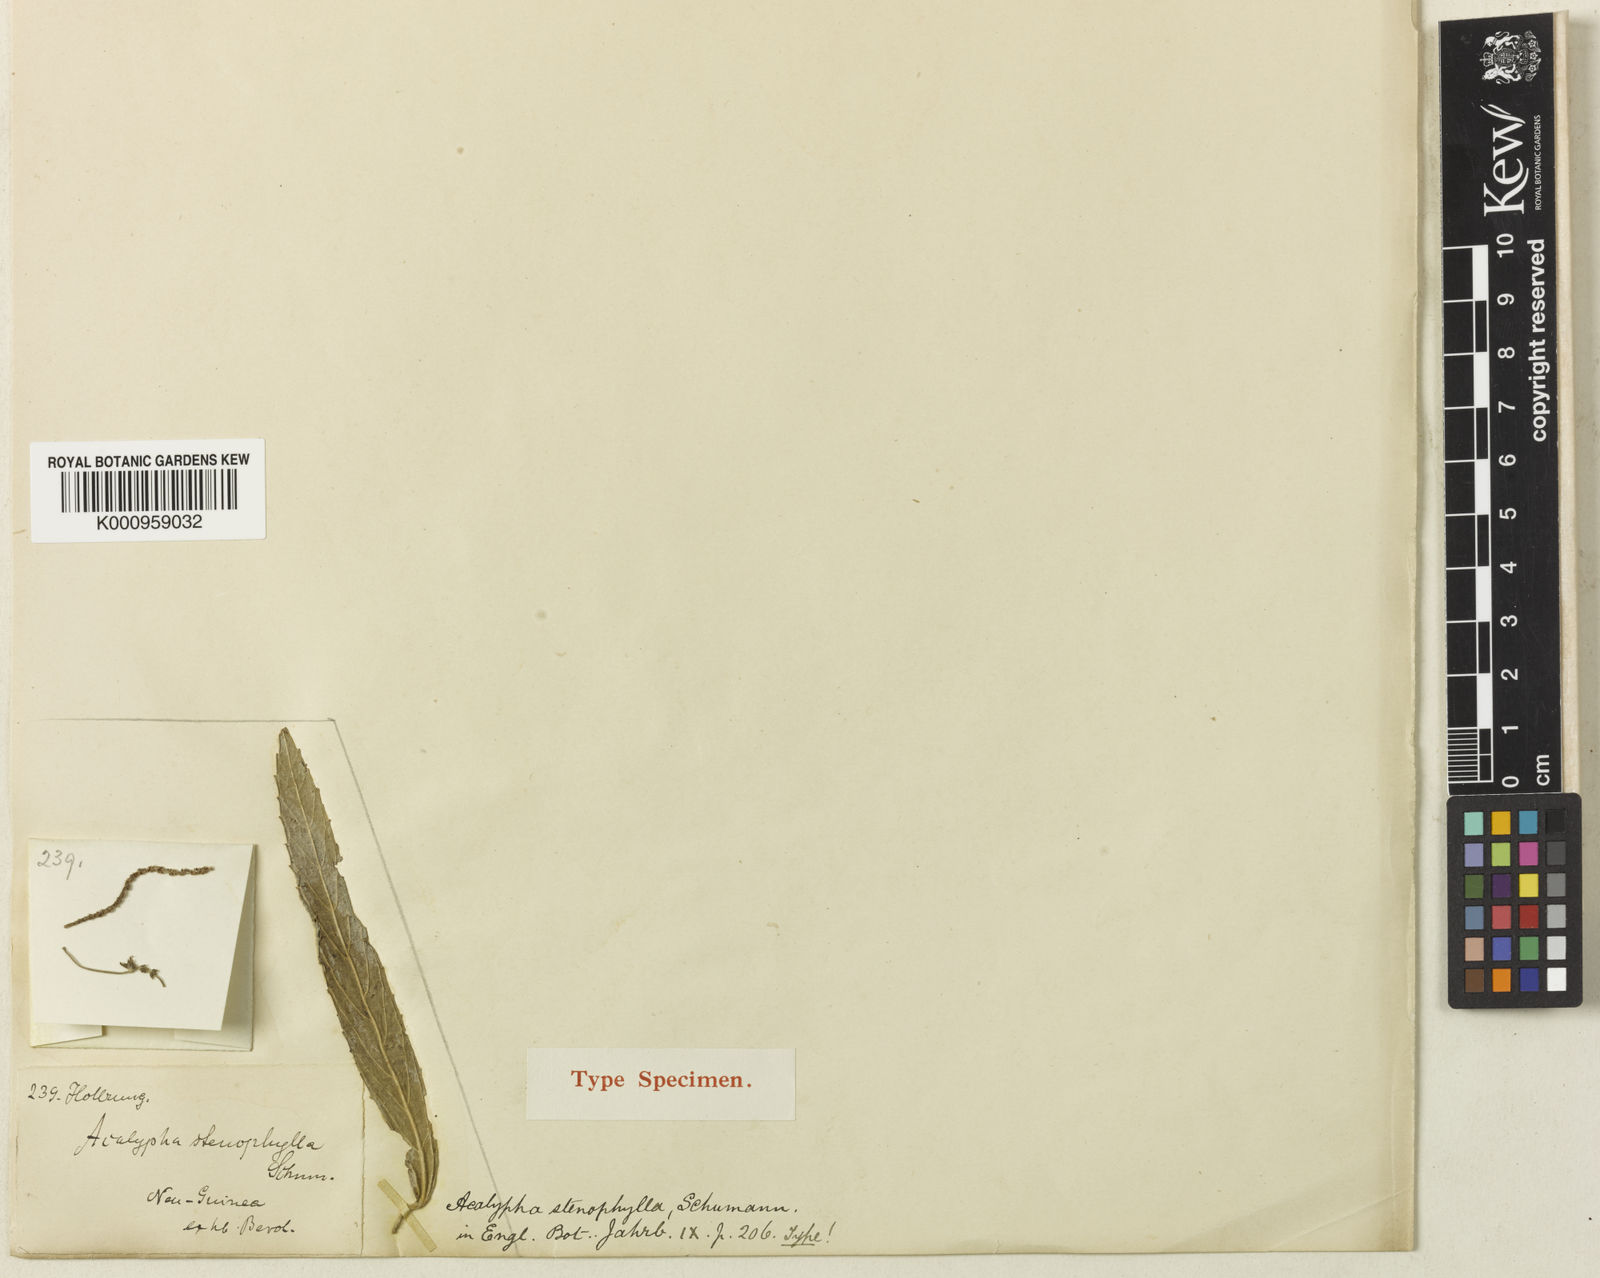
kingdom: Plantae
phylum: Tracheophyta
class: Magnoliopsida
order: Malpighiales
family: Euphorbiaceae
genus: Acalypha
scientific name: Acalypha stenophylla
